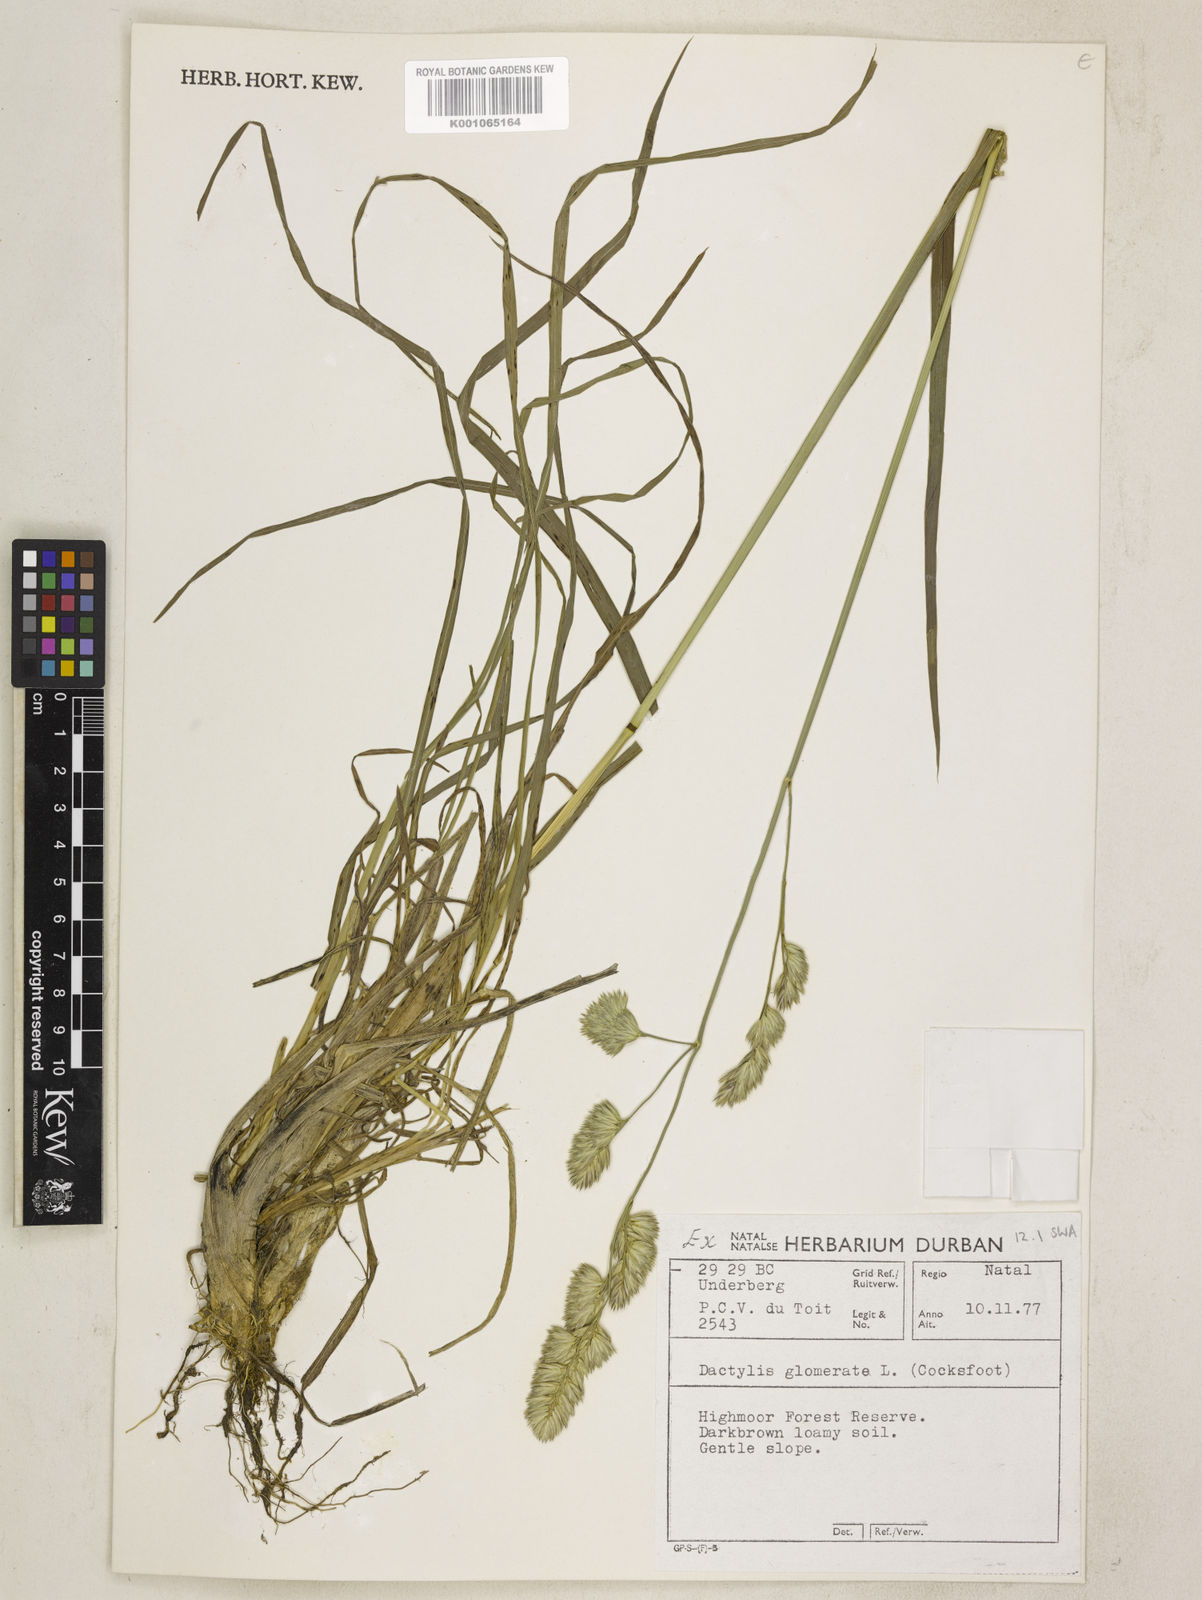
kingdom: Plantae
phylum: Tracheophyta
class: Liliopsida
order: Poales
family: Poaceae
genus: Dactylis
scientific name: Dactylis glomerata
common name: Orchardgrass
